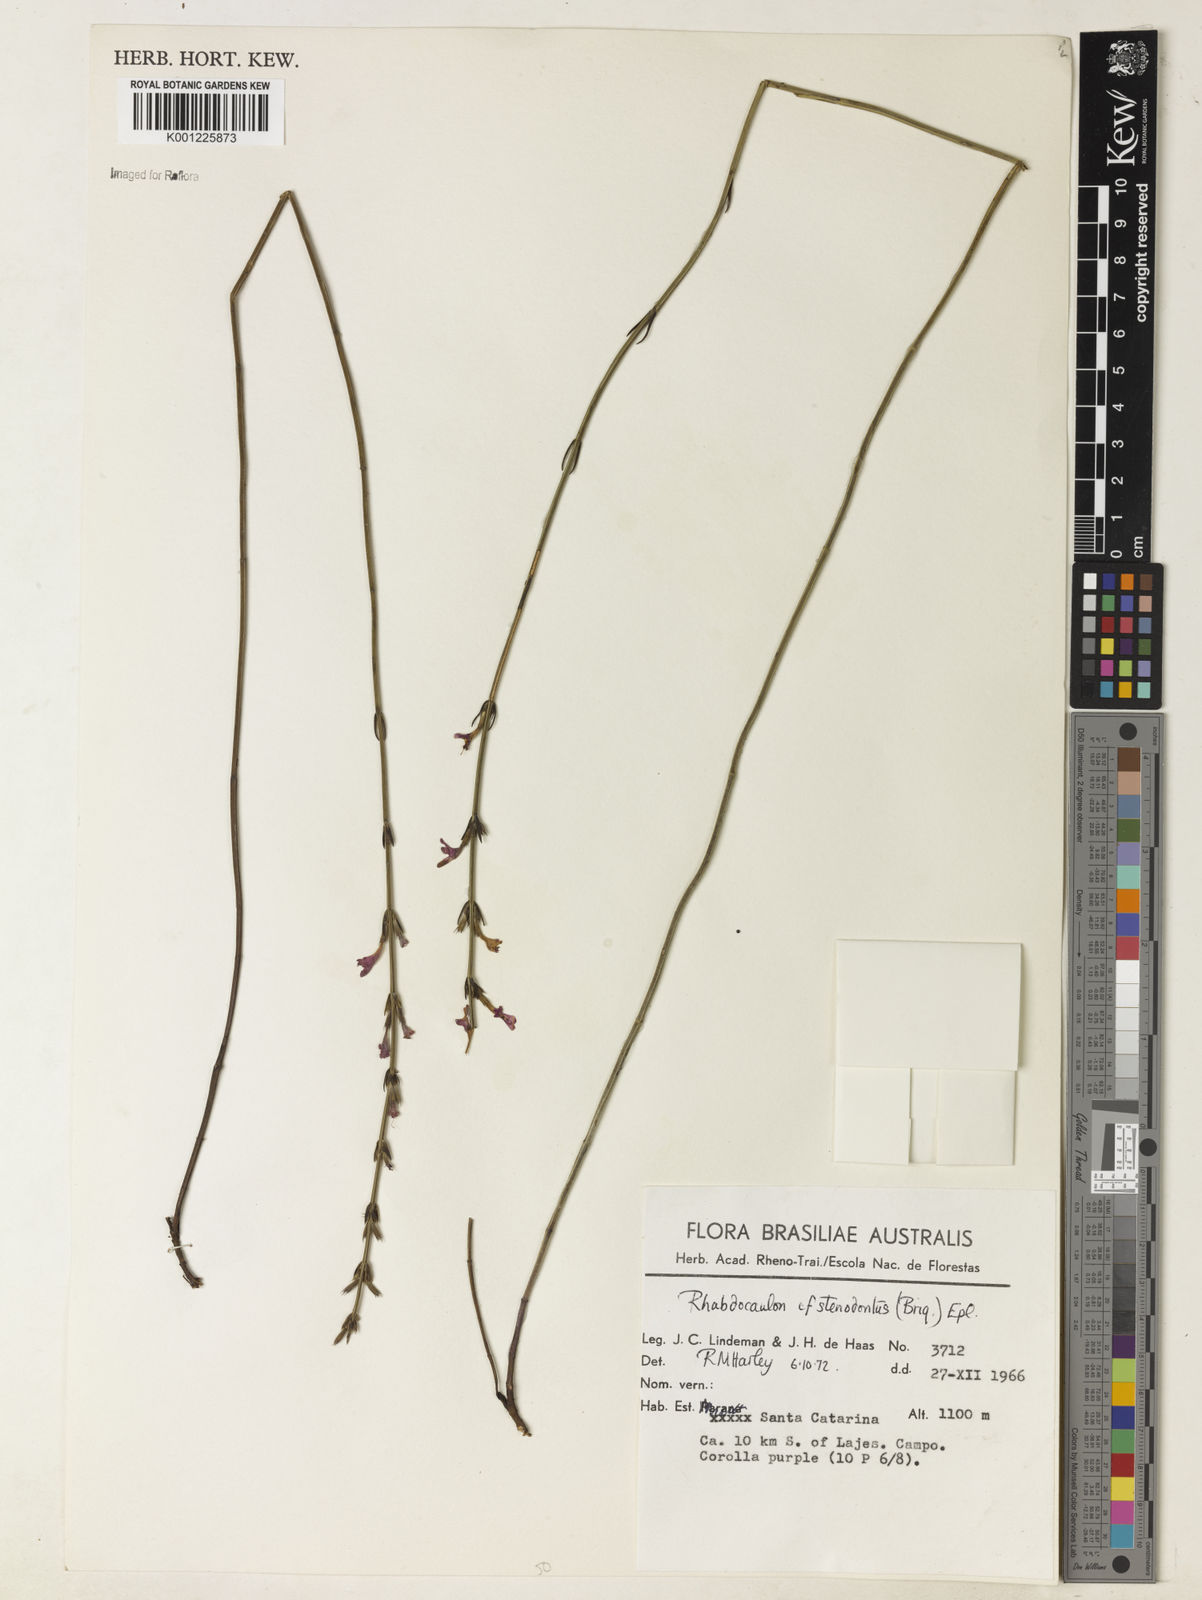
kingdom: Plantae
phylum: Tracheophyta
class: Magnoliopsida
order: Lamiales
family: Lamiaceae
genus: Rhabdocaulon
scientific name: Rhabdocaulon stenodontum
